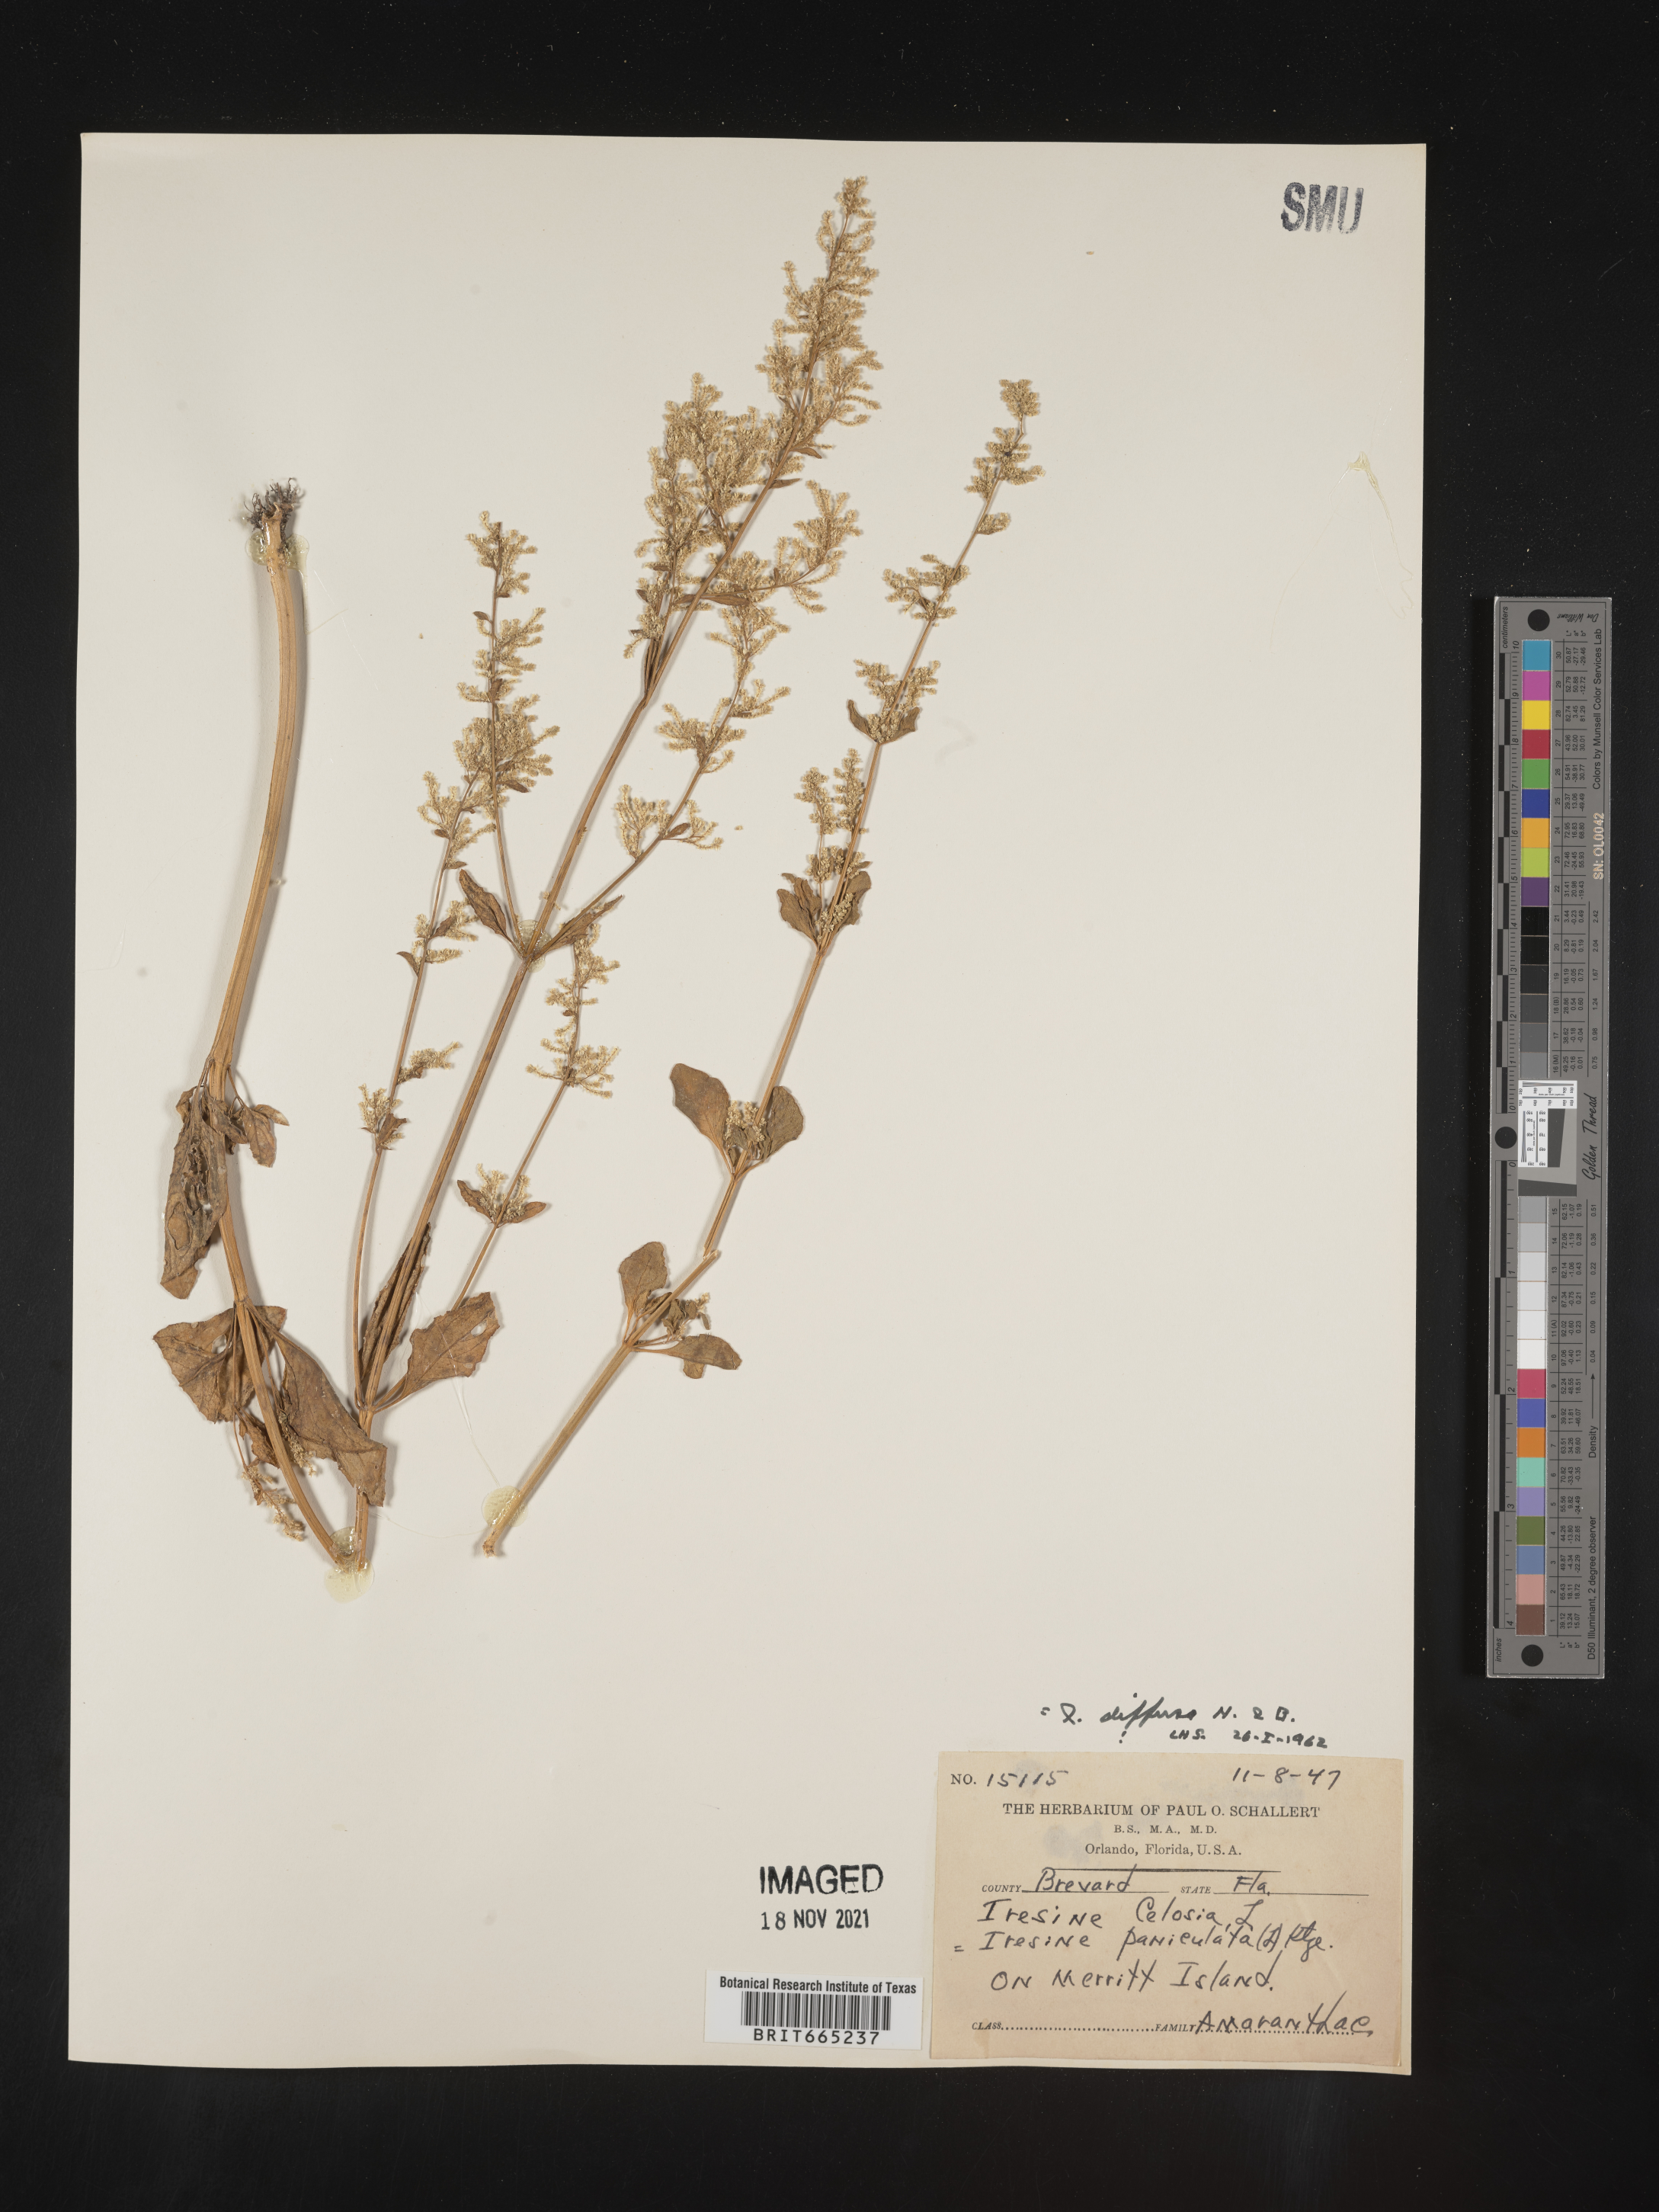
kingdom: Plantae
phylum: Tracheophyta
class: Magnoliopsida
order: Caryophyllales
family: Amaranthaceae
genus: Iresine
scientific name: Iresine
